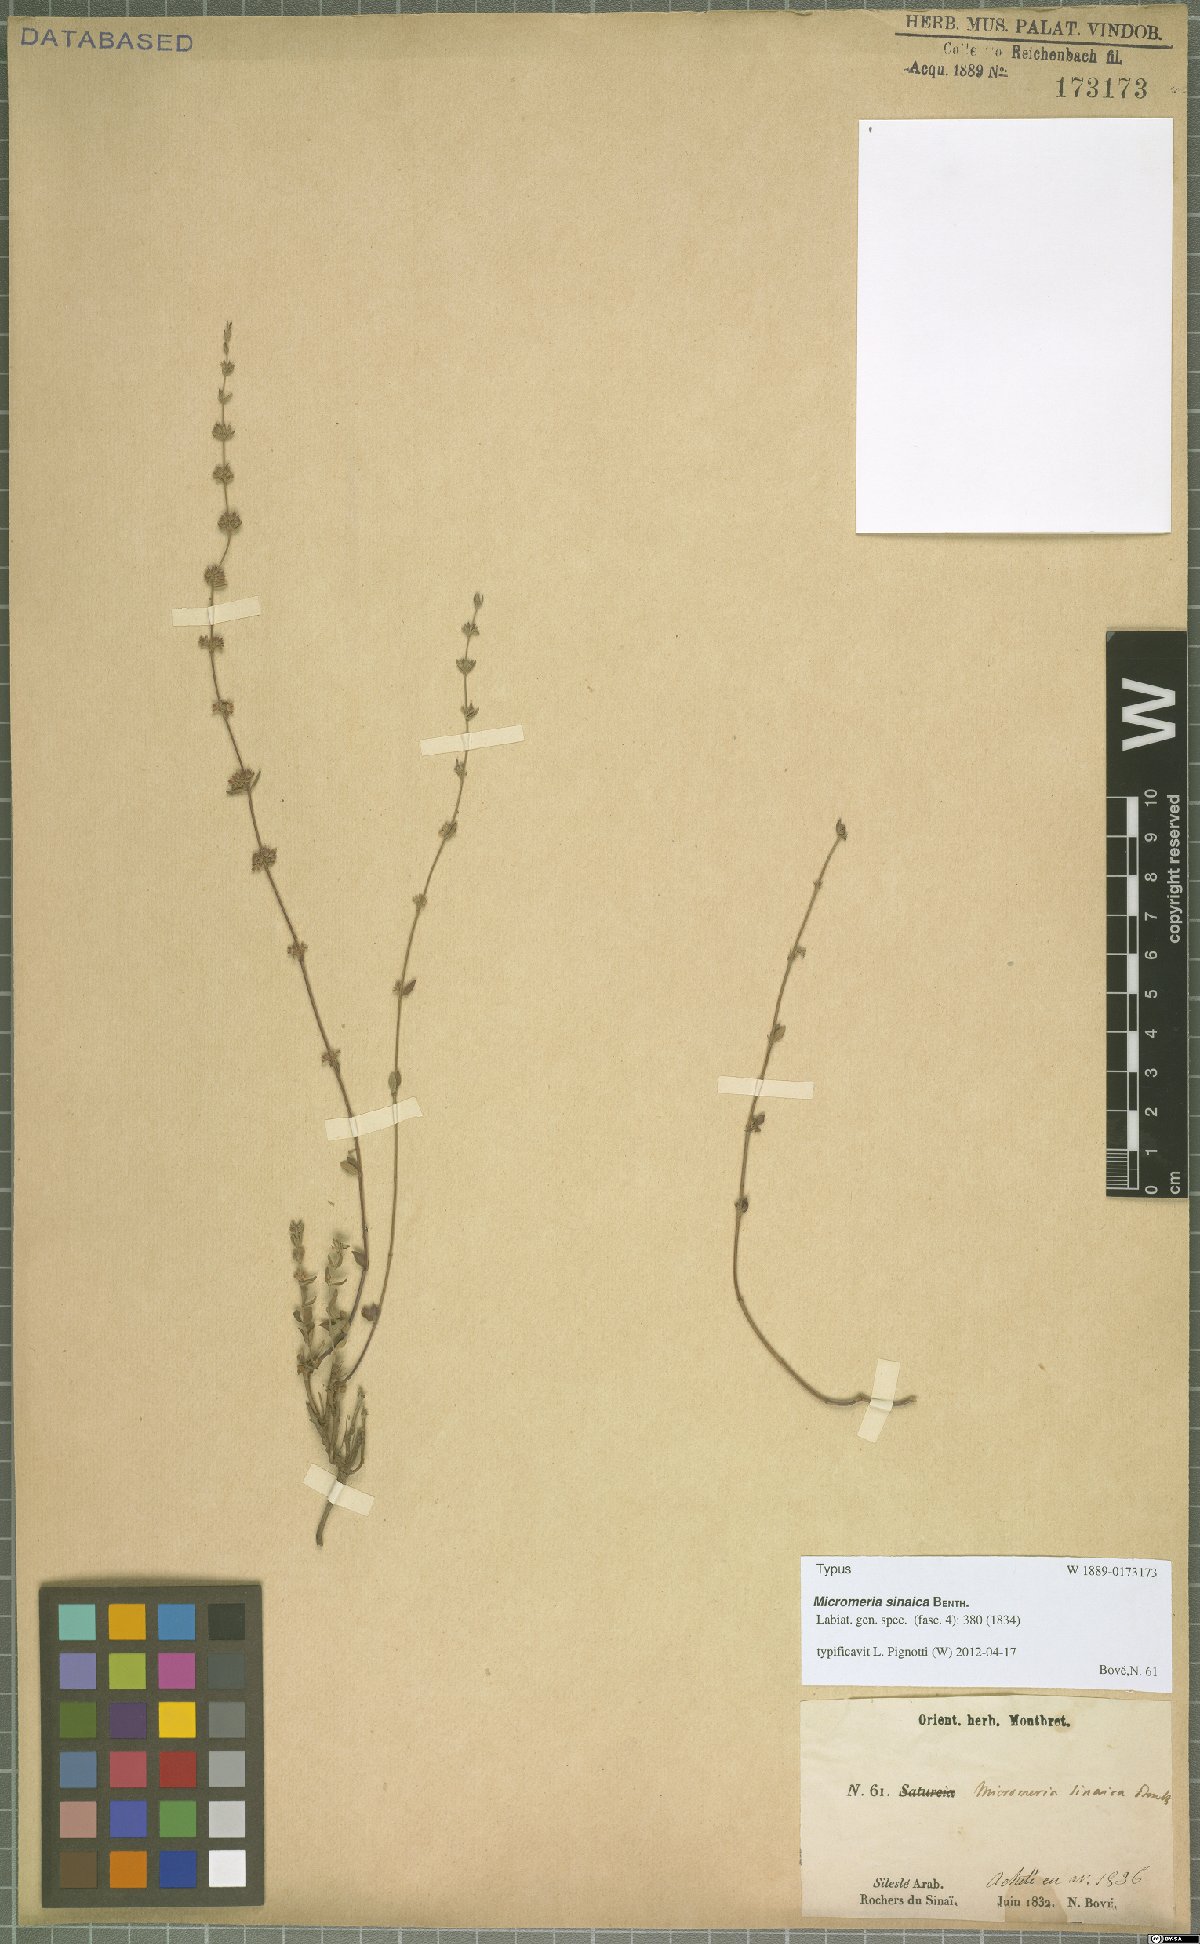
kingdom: Plantae
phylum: Tracheophyta
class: Magnoliopsida
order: Lamiales
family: Lamiaceae
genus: Micromeria
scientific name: Micromeria sinaica
